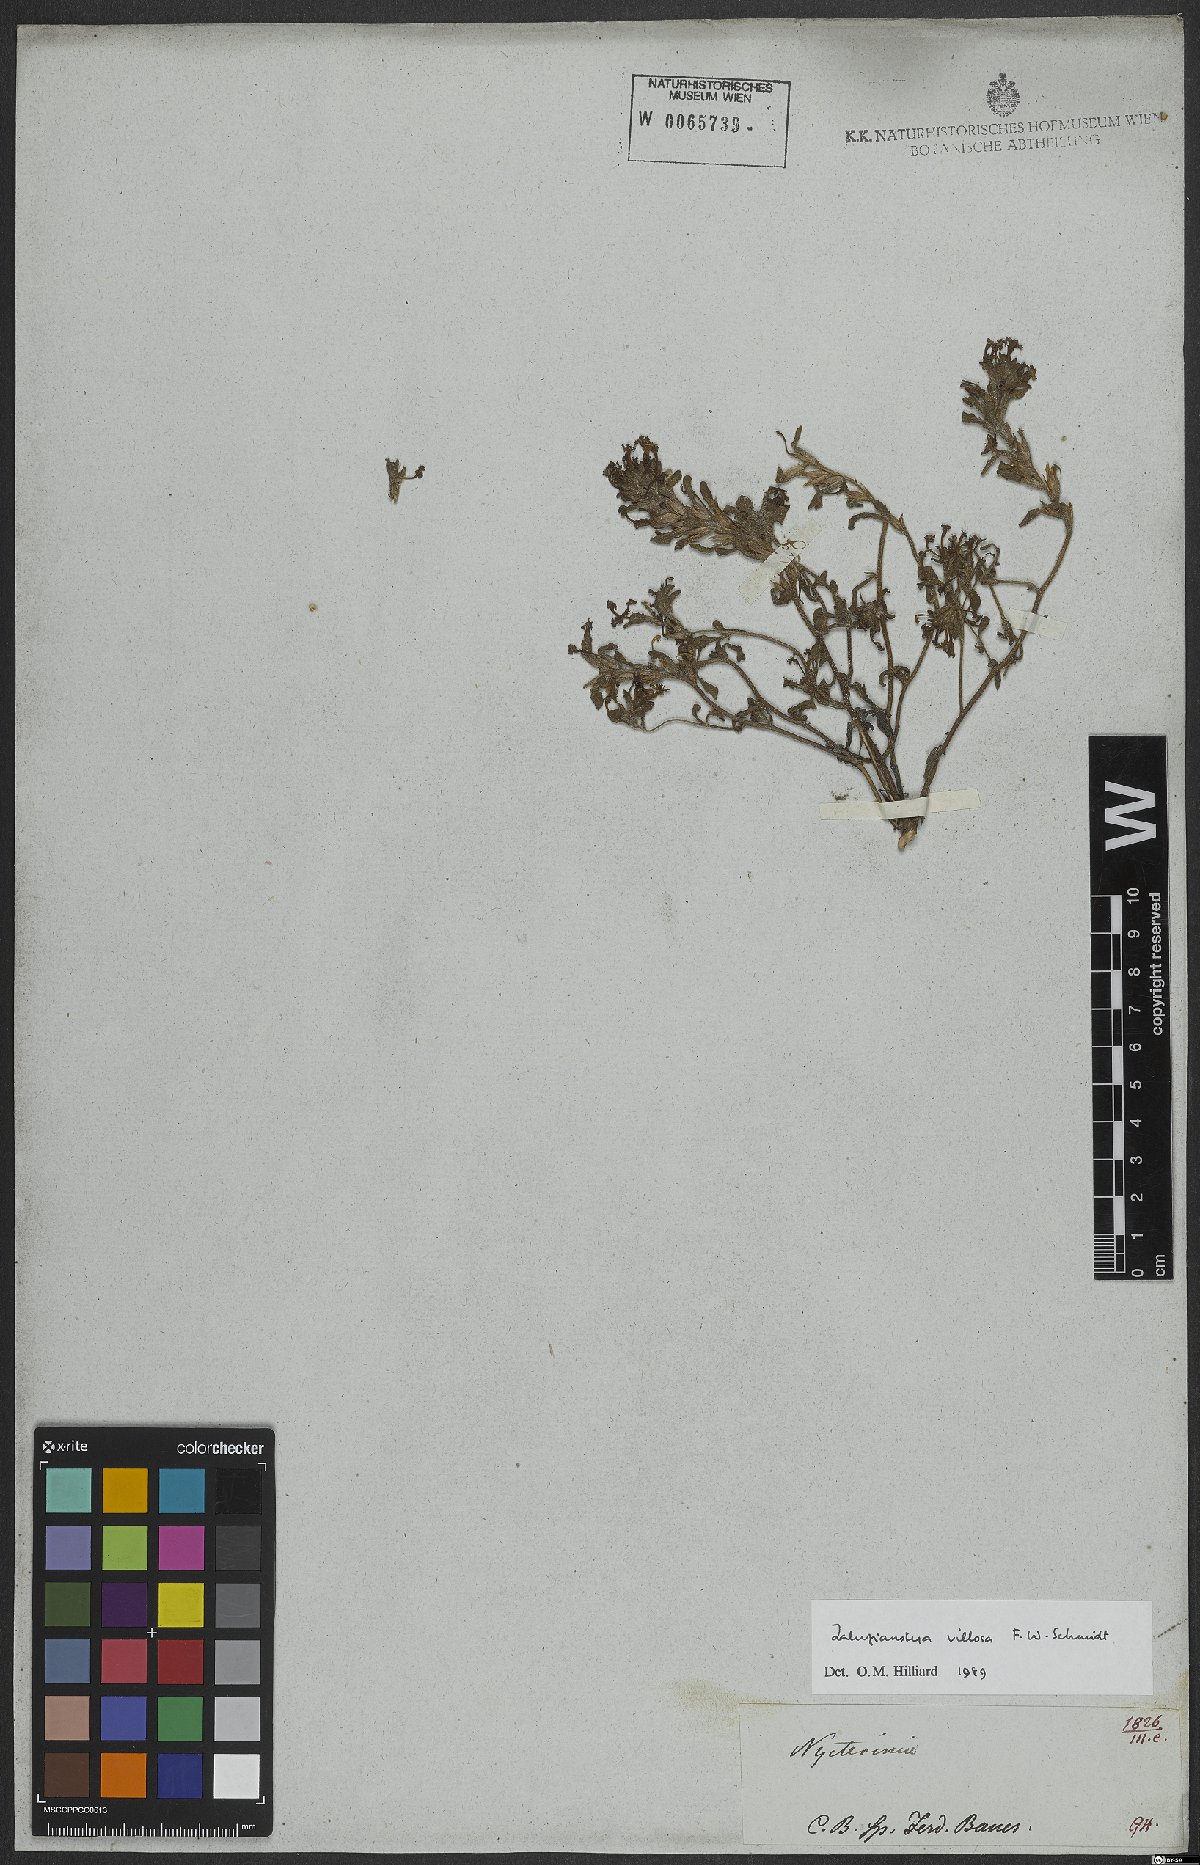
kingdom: Plantae
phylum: Tracheophyta
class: Magnoliopsida
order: Lamiales
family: Scrophulariaceae
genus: Zaluzianskya
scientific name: Zaluzianskya villosa
